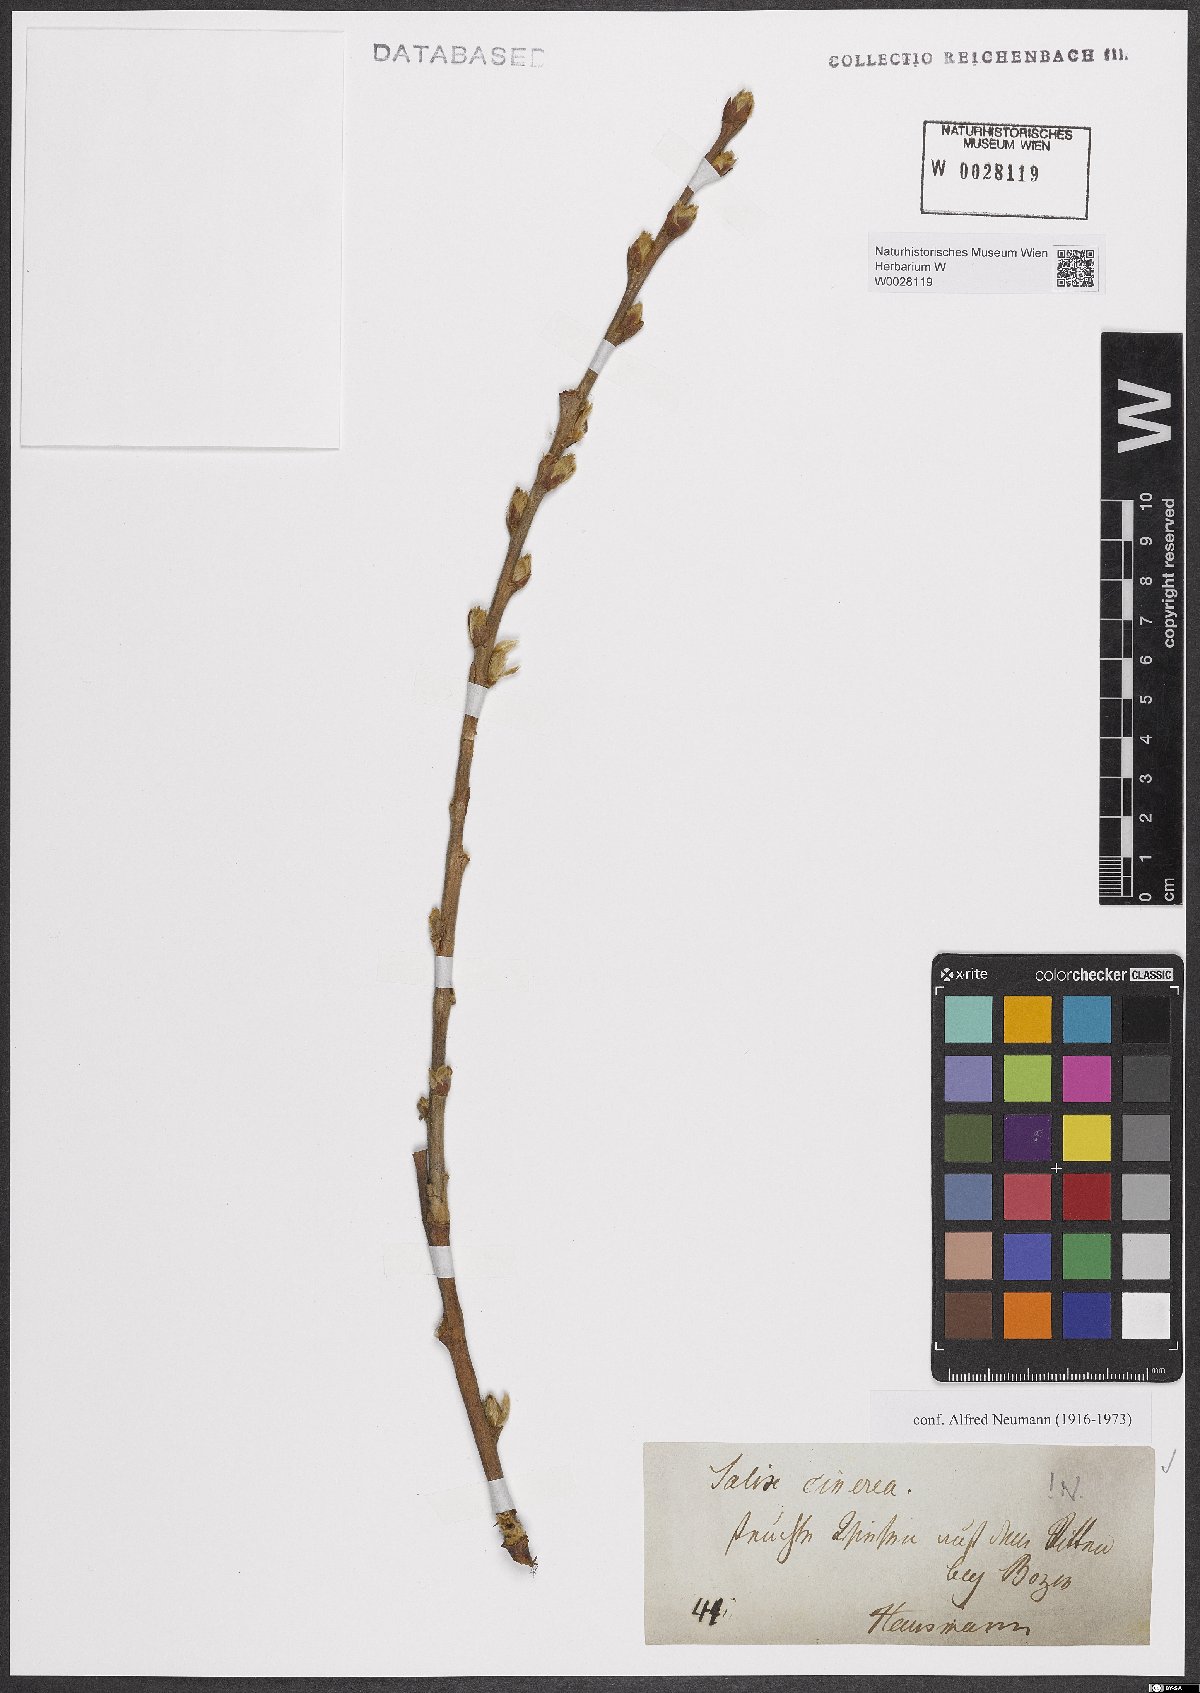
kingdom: Plantae
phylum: Tracheophyta
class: Magnoliopsida
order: Malpighiales
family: Salicaceae
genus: Salix
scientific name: Salix cinerea
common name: Common sallow
